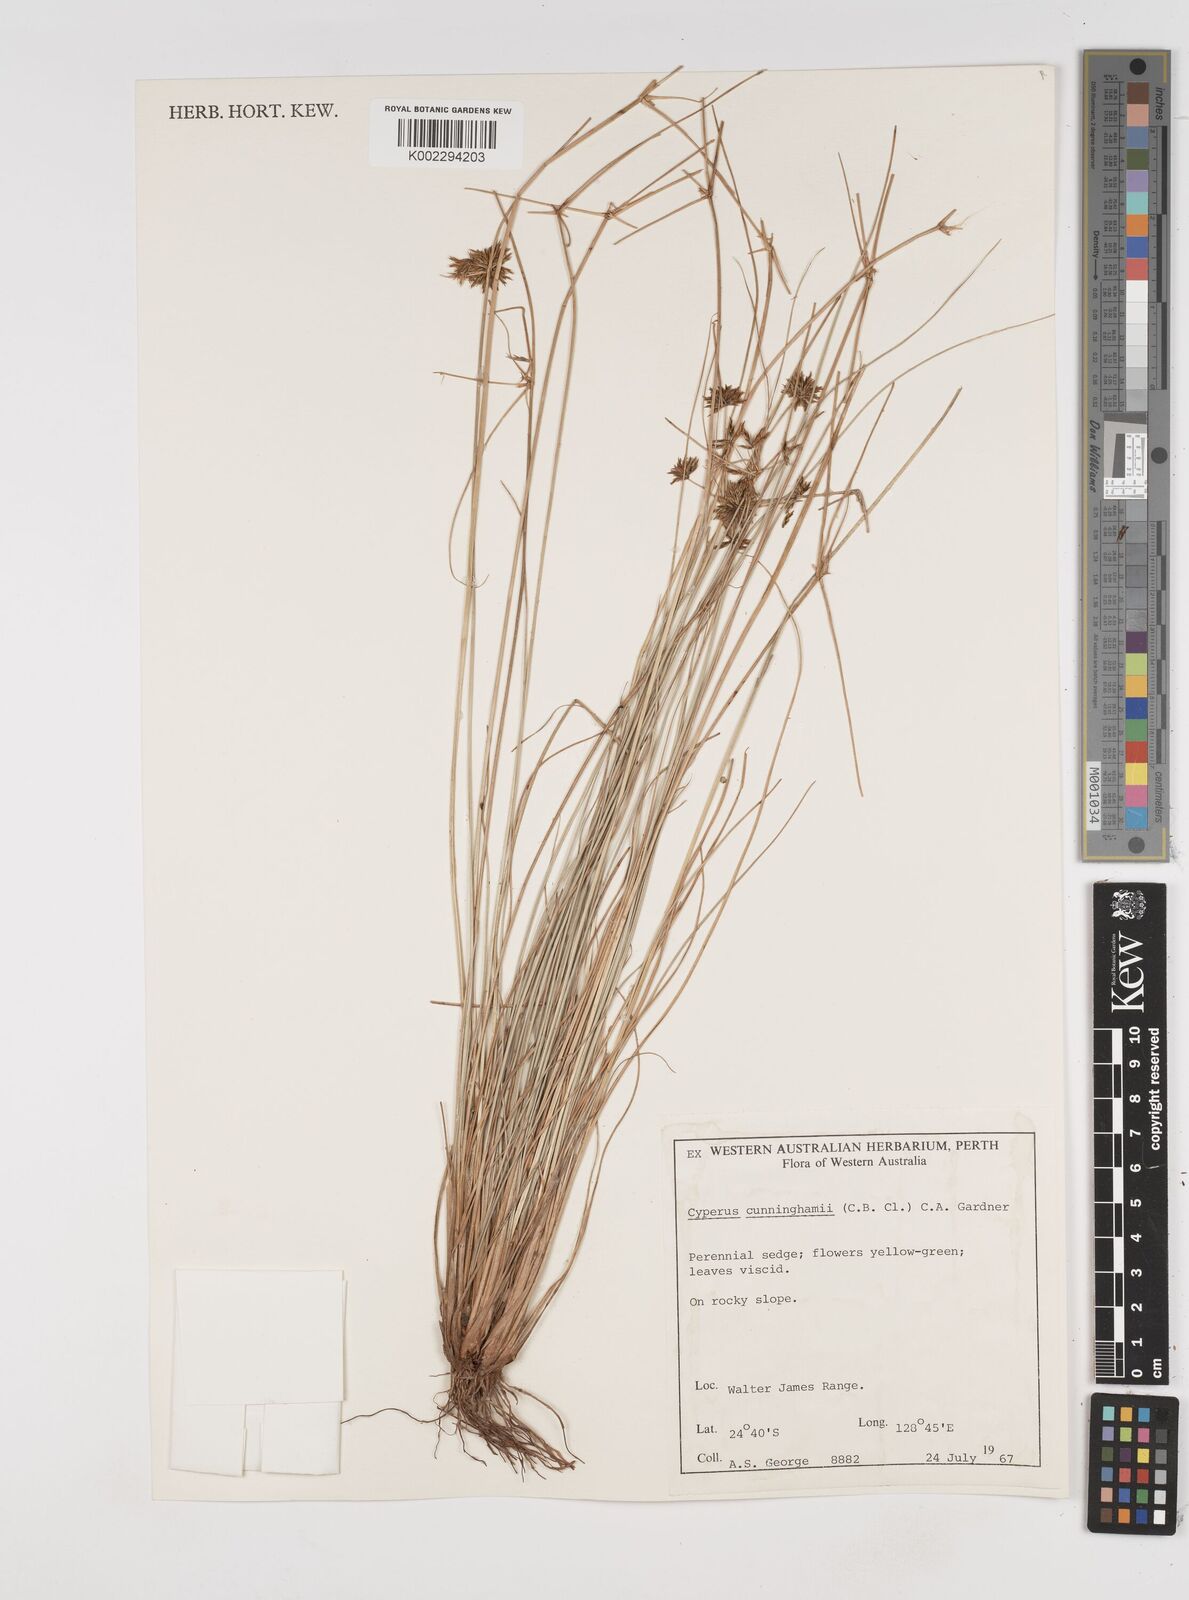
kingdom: Plantae
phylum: Tracheophyta
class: Liliopsida
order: Poales
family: Cyperaceae
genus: Cyperus
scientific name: Cyperus cunninghamii
